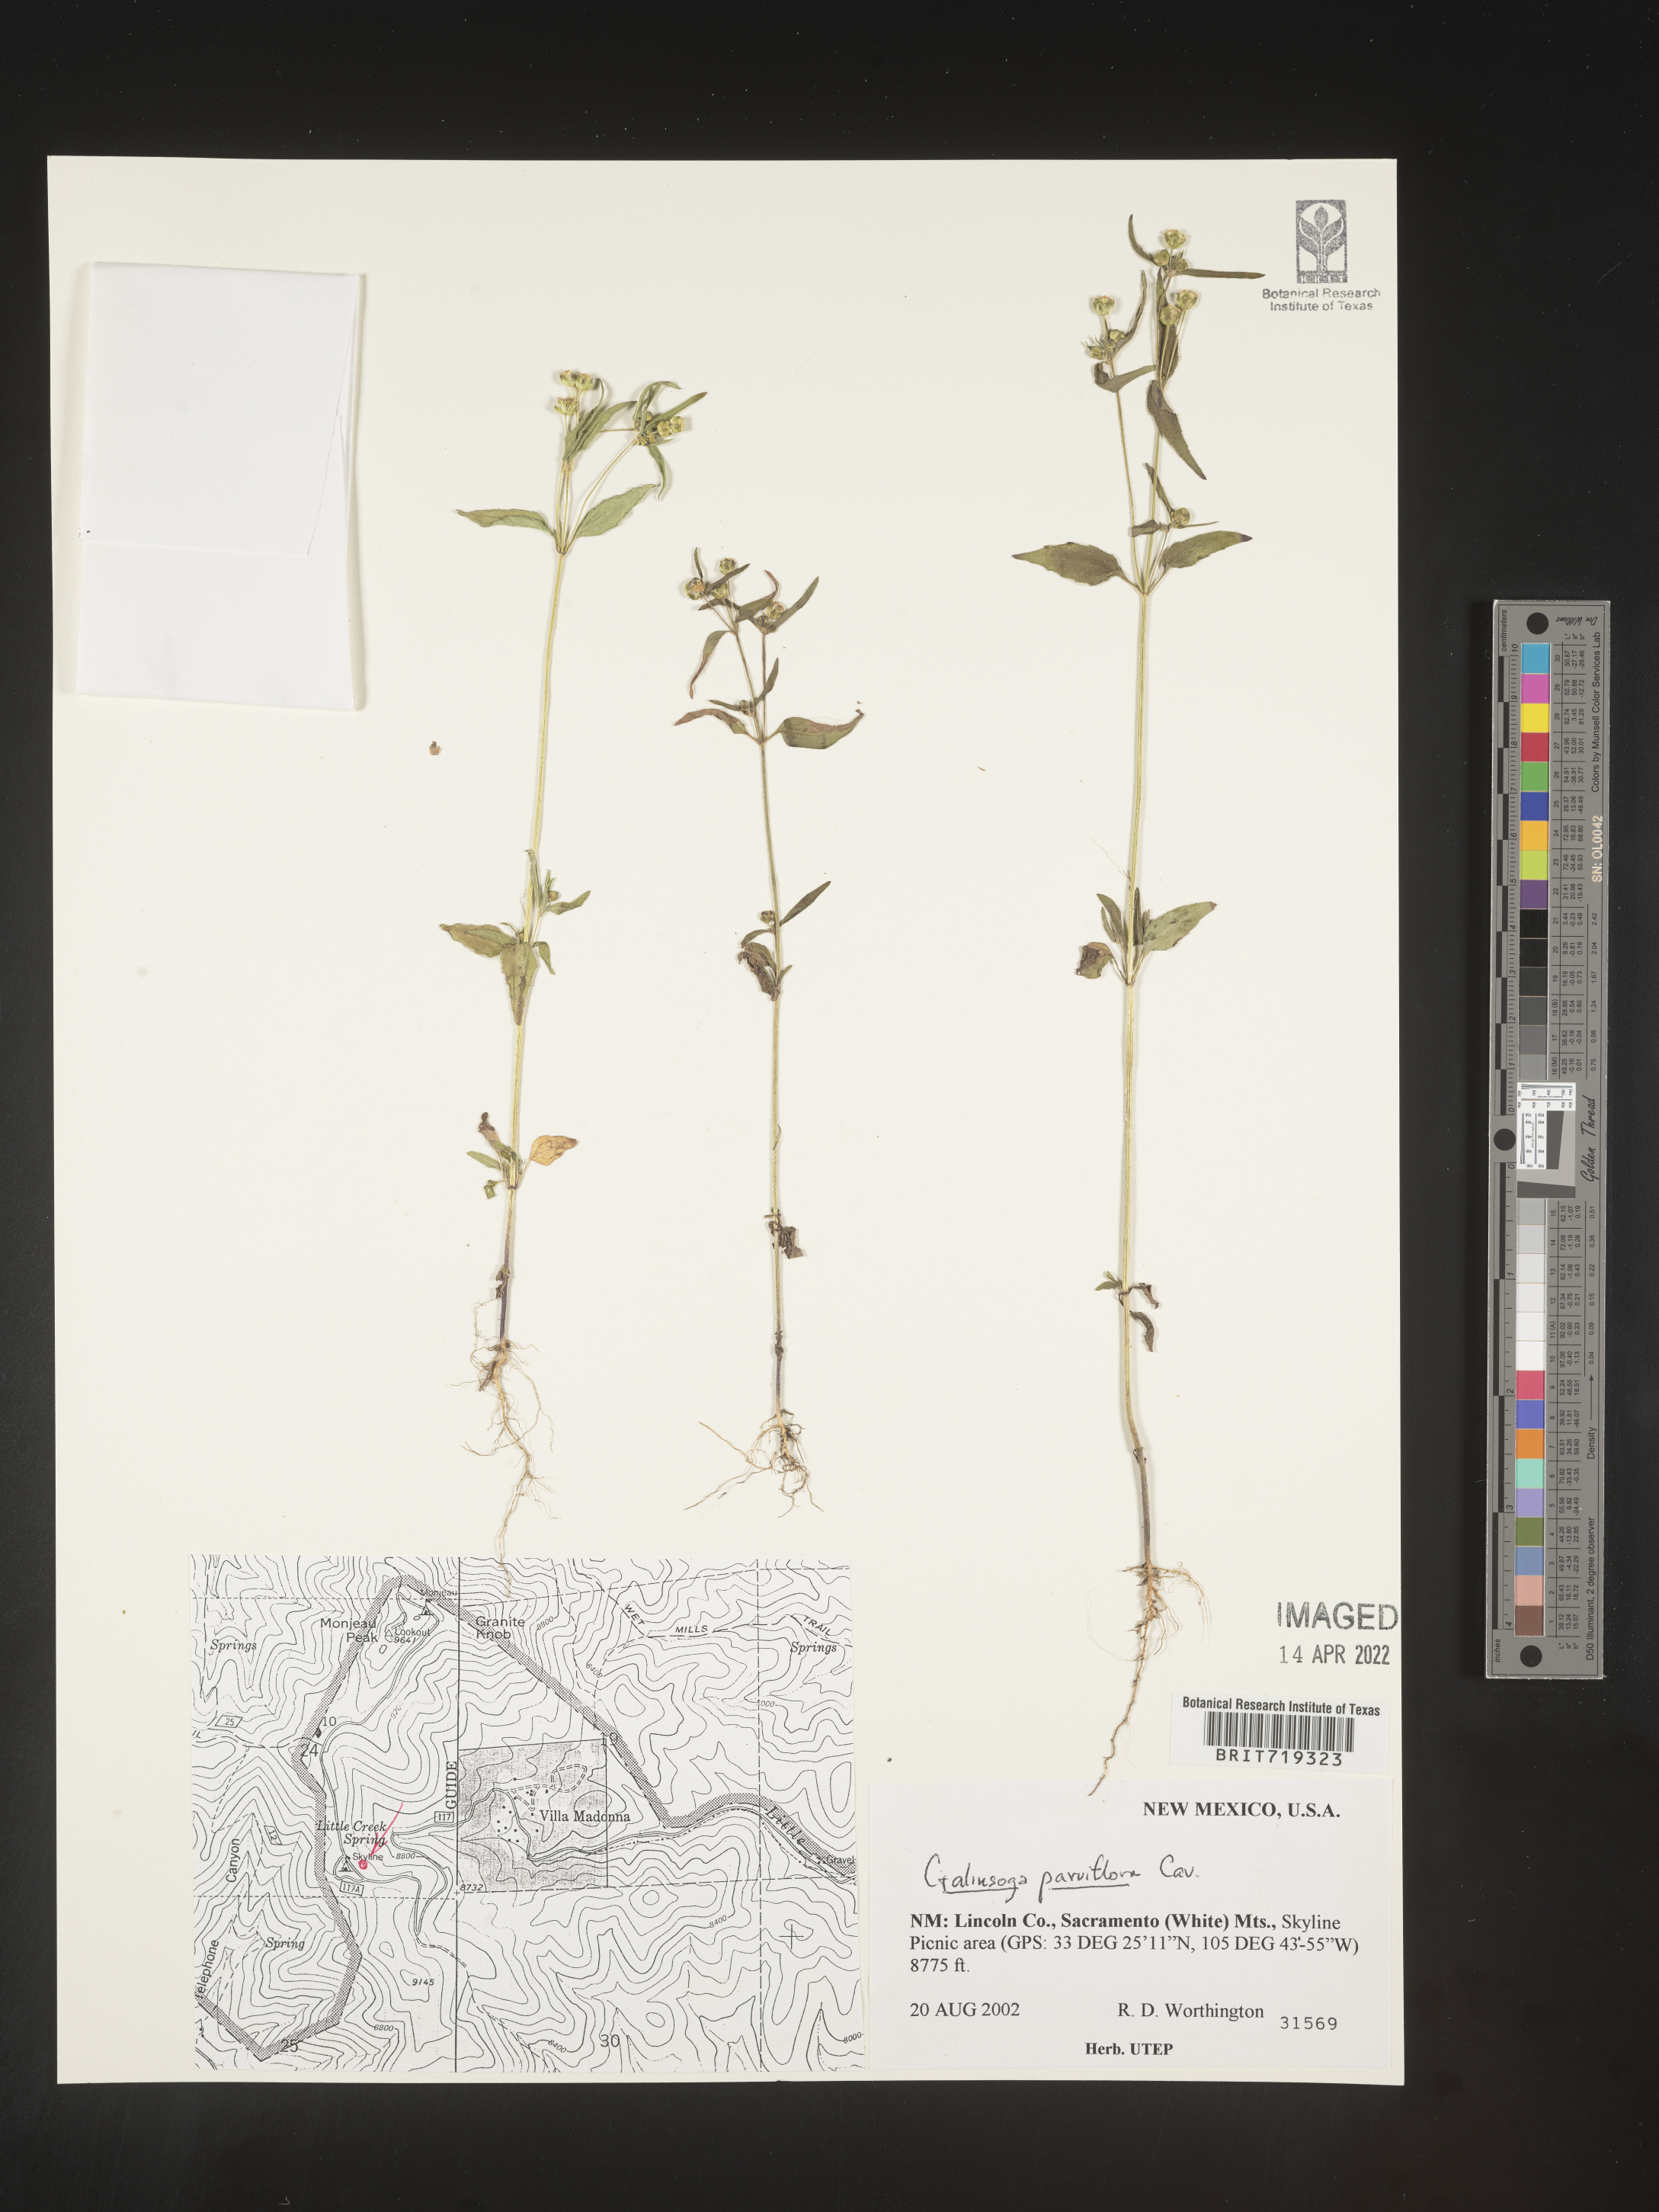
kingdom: Plantae
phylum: Tracheophyta
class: Magnoliopsida
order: Asterales
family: Asteraceae
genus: Galinsoga
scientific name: Galinsoga parviflora
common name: Gallant soldier
